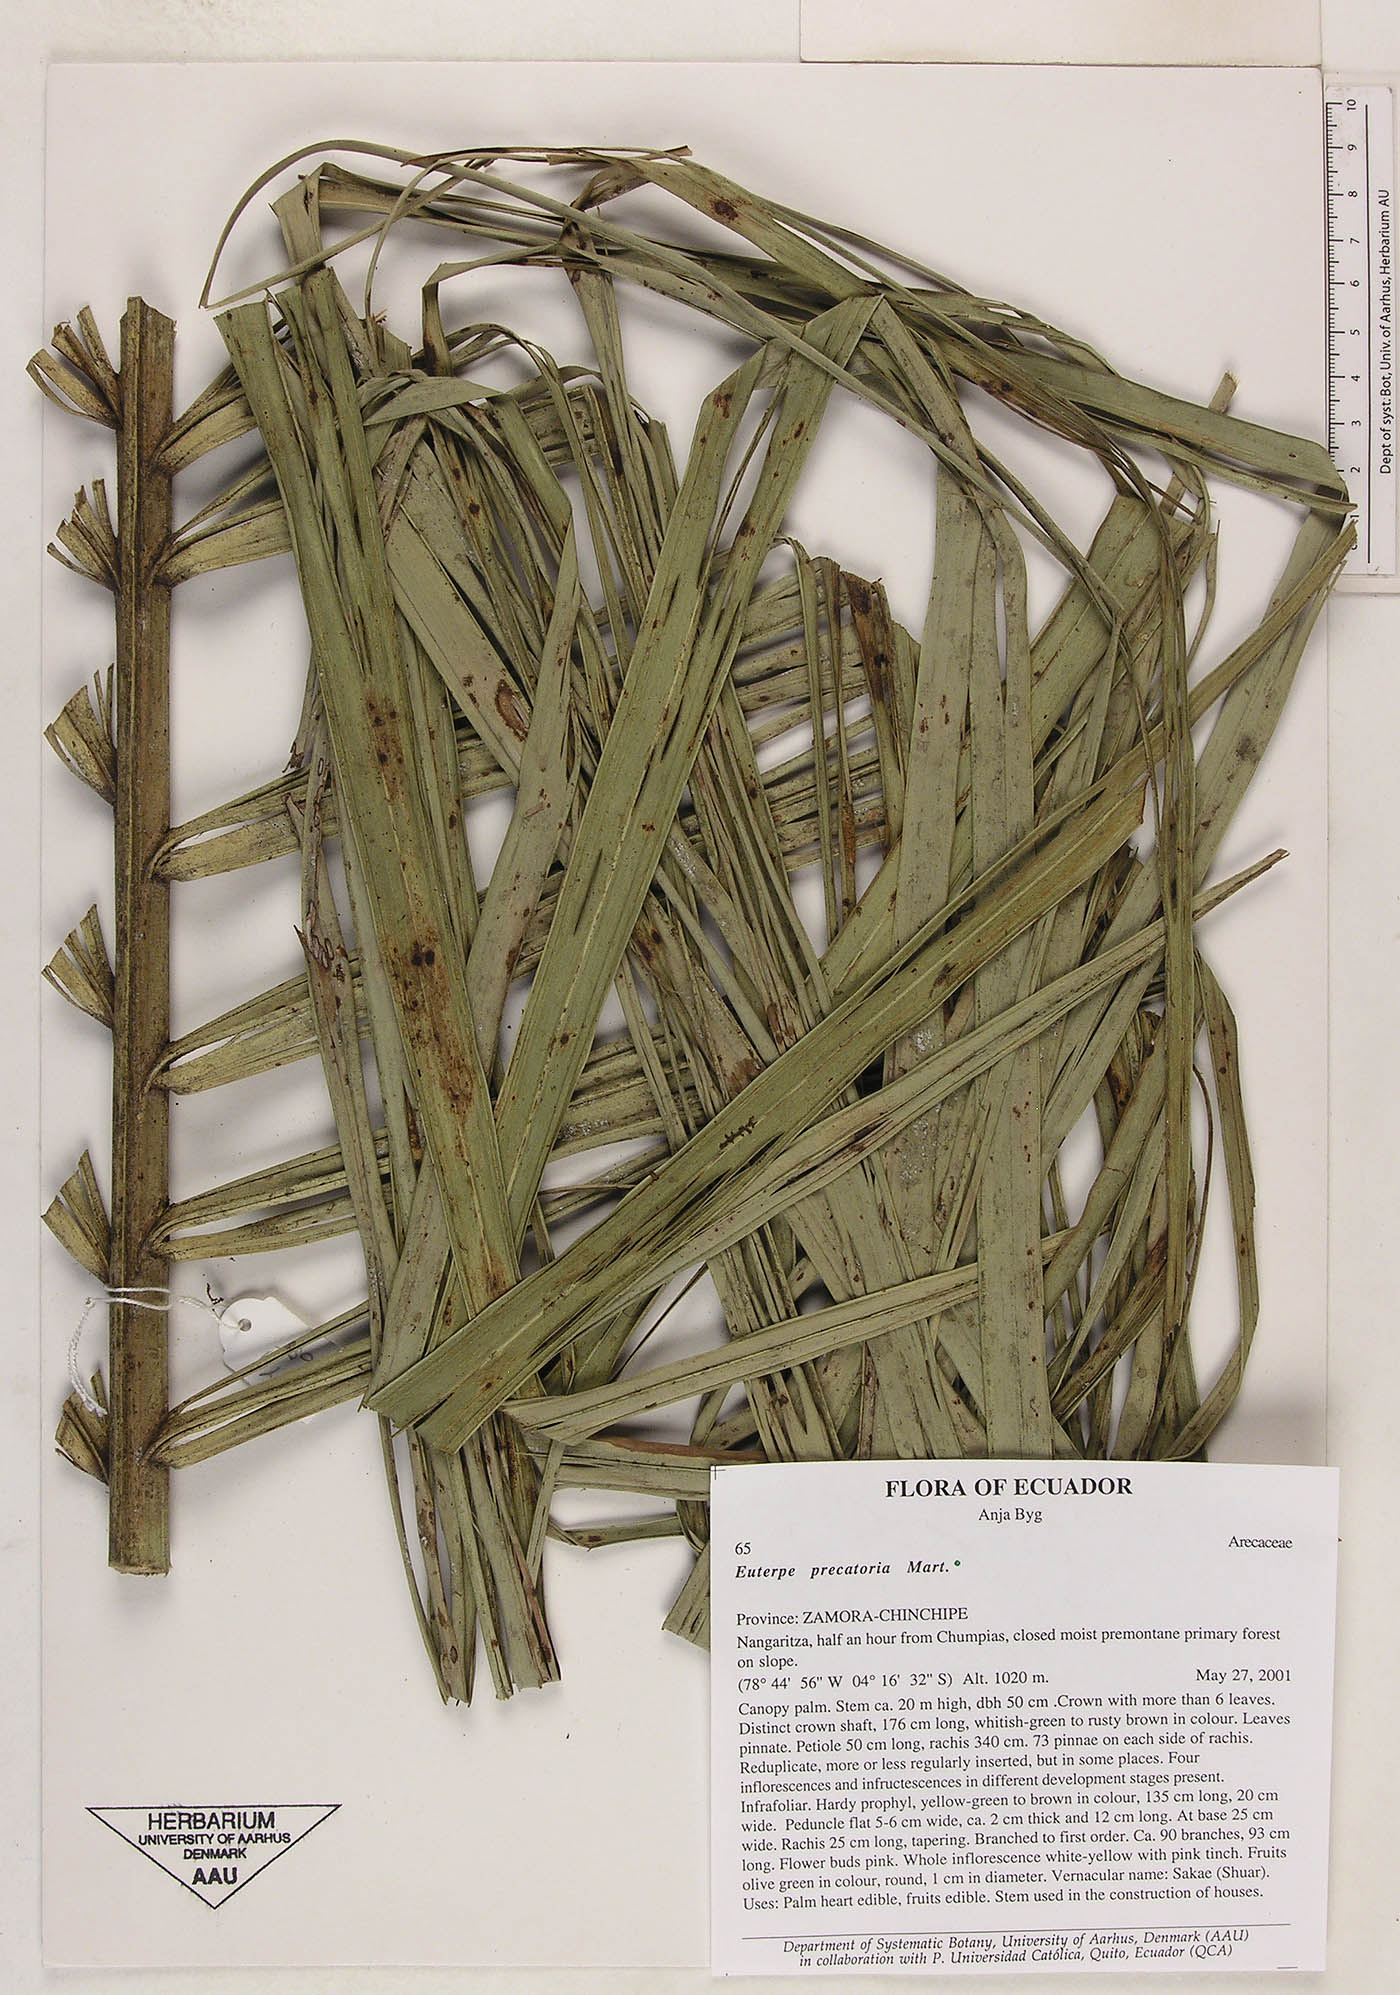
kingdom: Plantae
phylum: Tracheophyta
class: Liliopsida
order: Arecales
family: Arecaceae
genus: Euterpe
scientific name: Euterpe precatoria
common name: Mountain-cabbage
